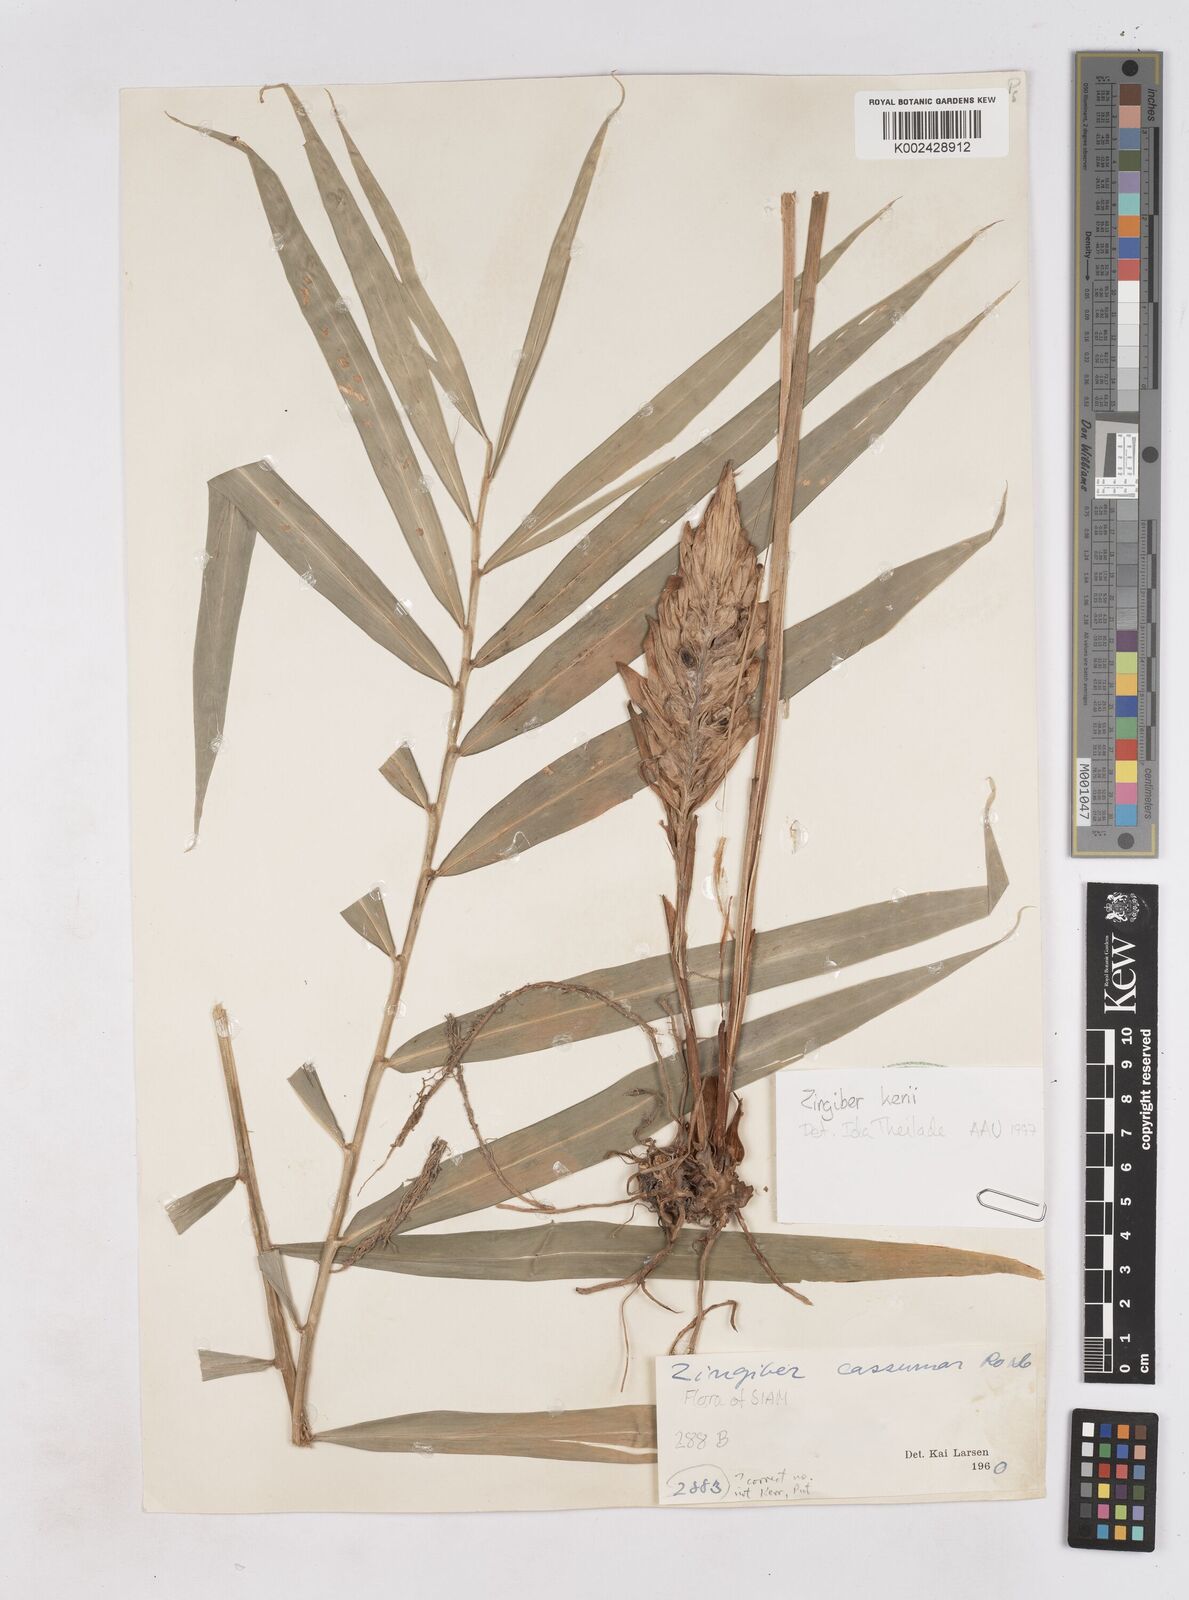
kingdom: Plantae
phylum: Tracheophyta
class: Liliopsida
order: Zingiberales
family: Zingiberaceae
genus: Zingiber
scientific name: Zingiber kerrii
